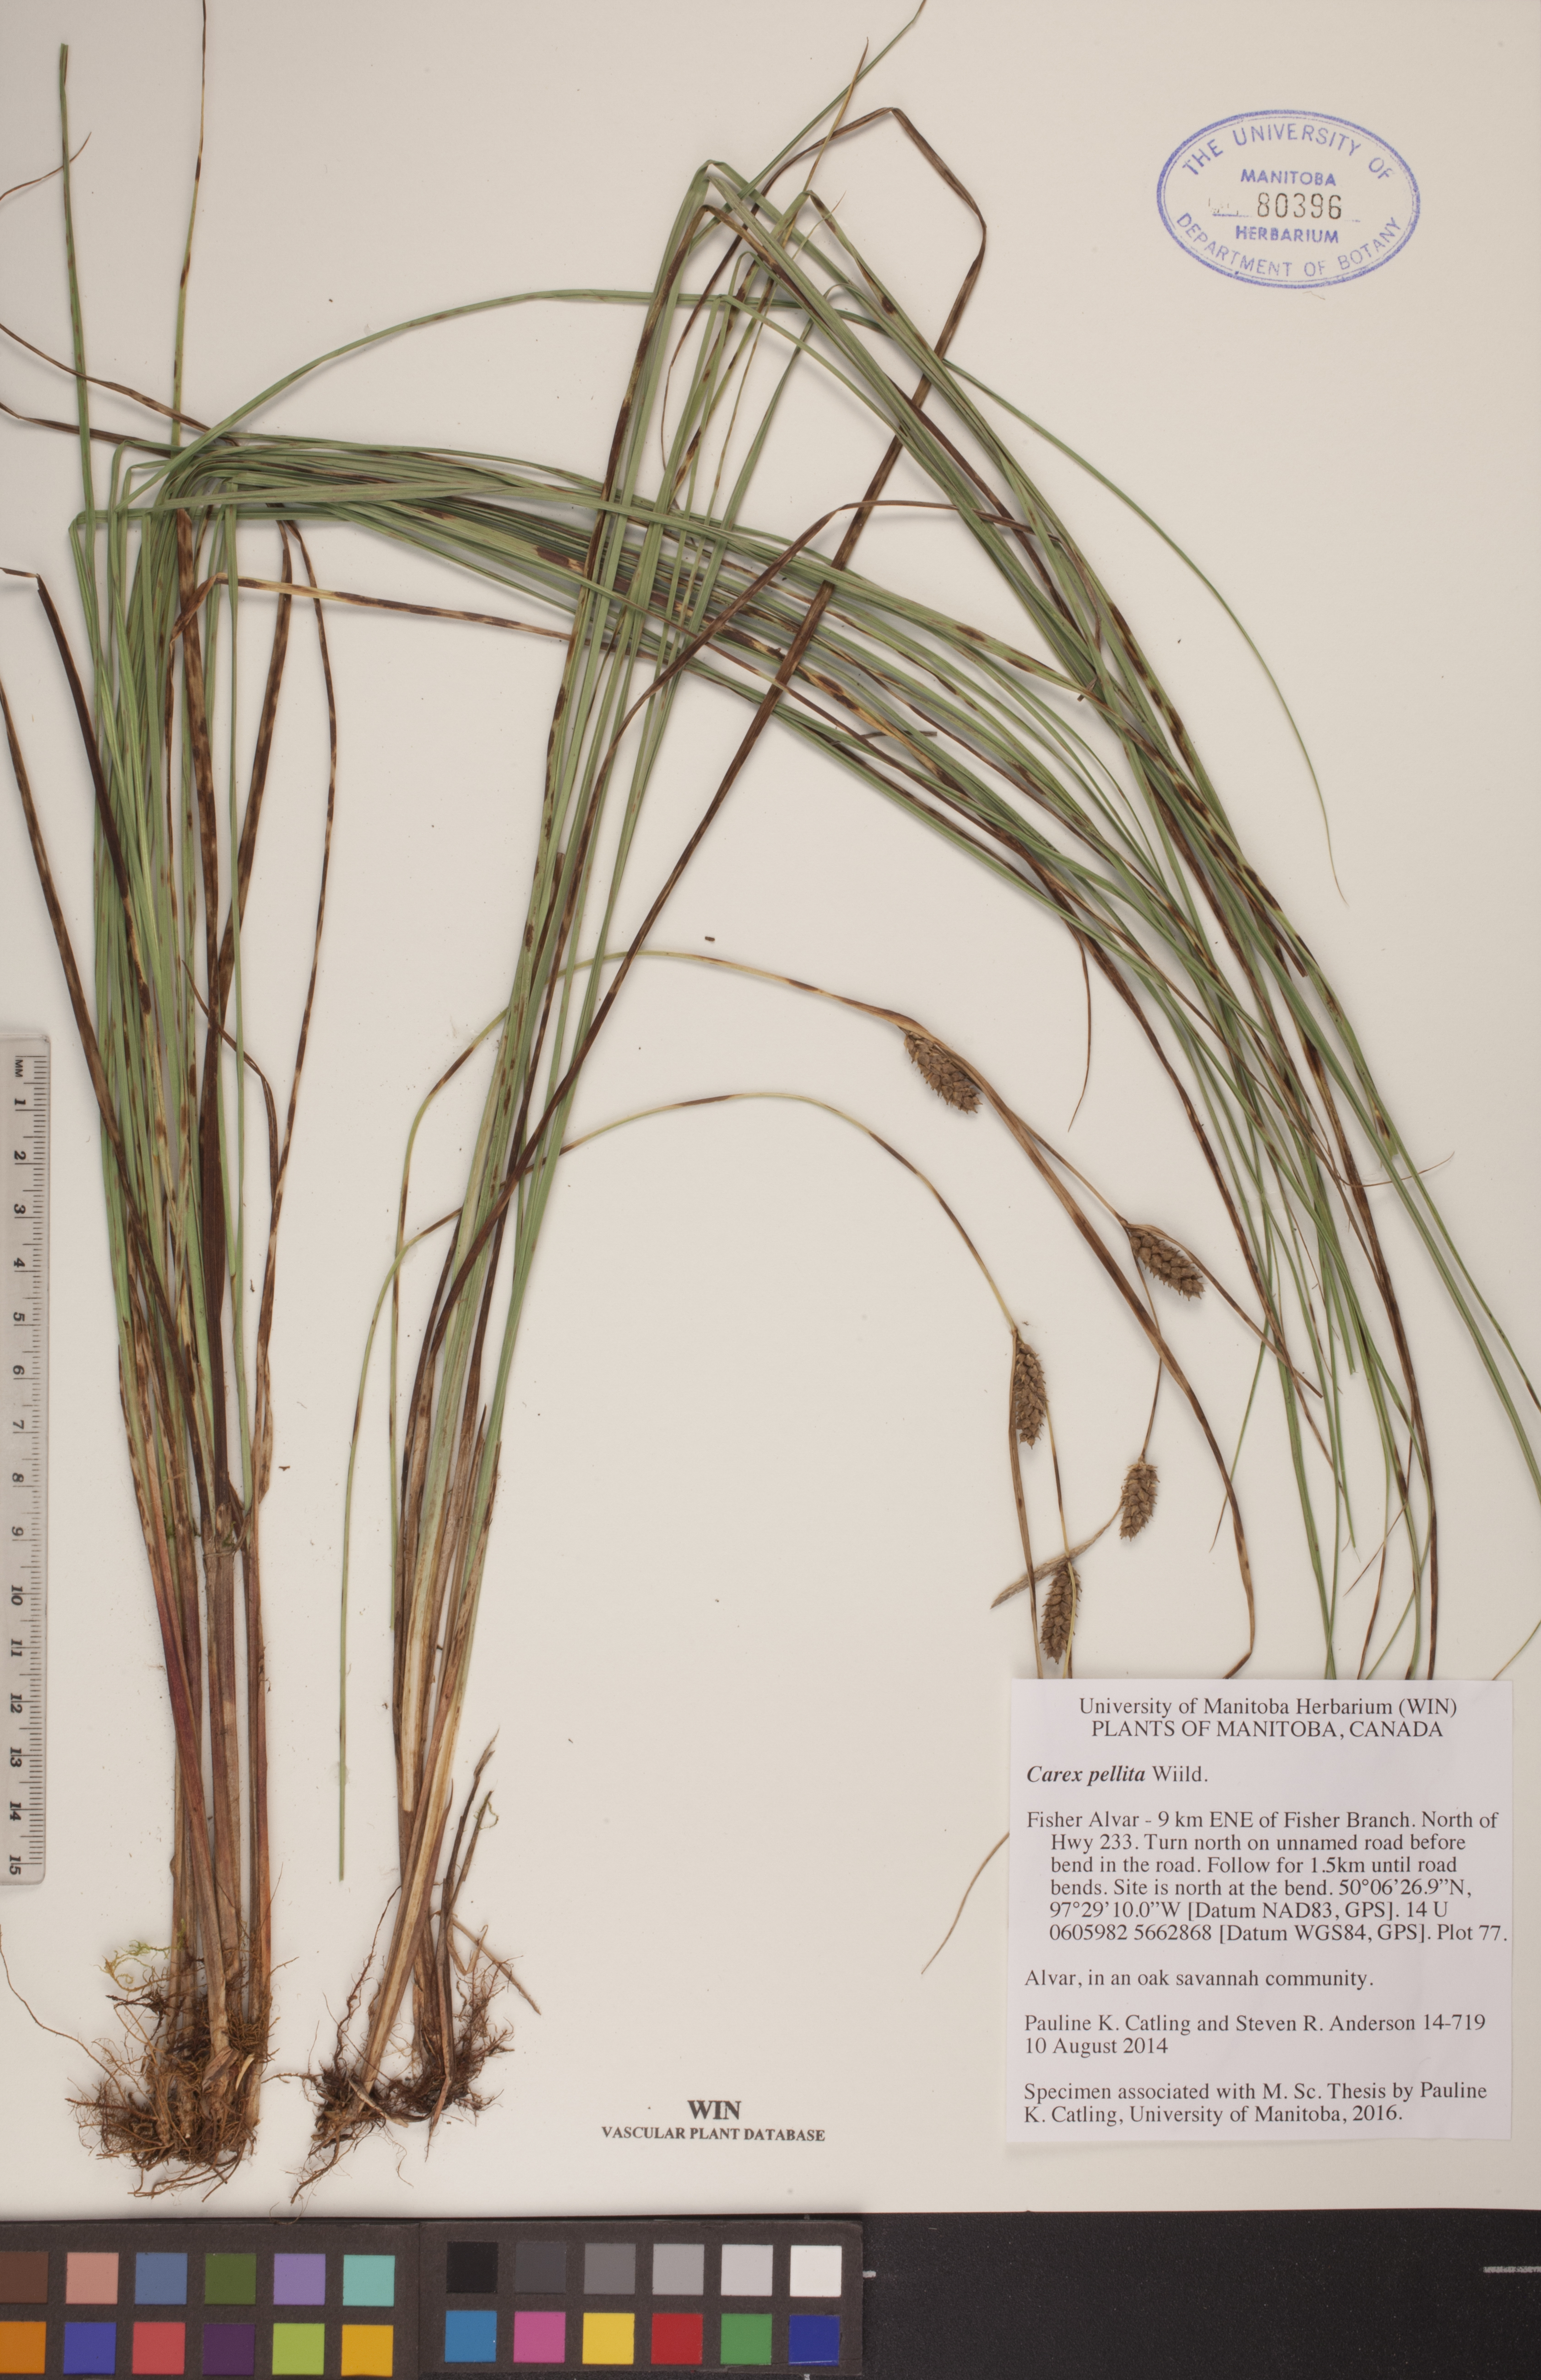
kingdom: Plantae
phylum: Tracheophyta
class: Liliopsida
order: Poales
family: Cyperaceae
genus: Carex
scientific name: Carex pellita
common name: Woolly sedge
